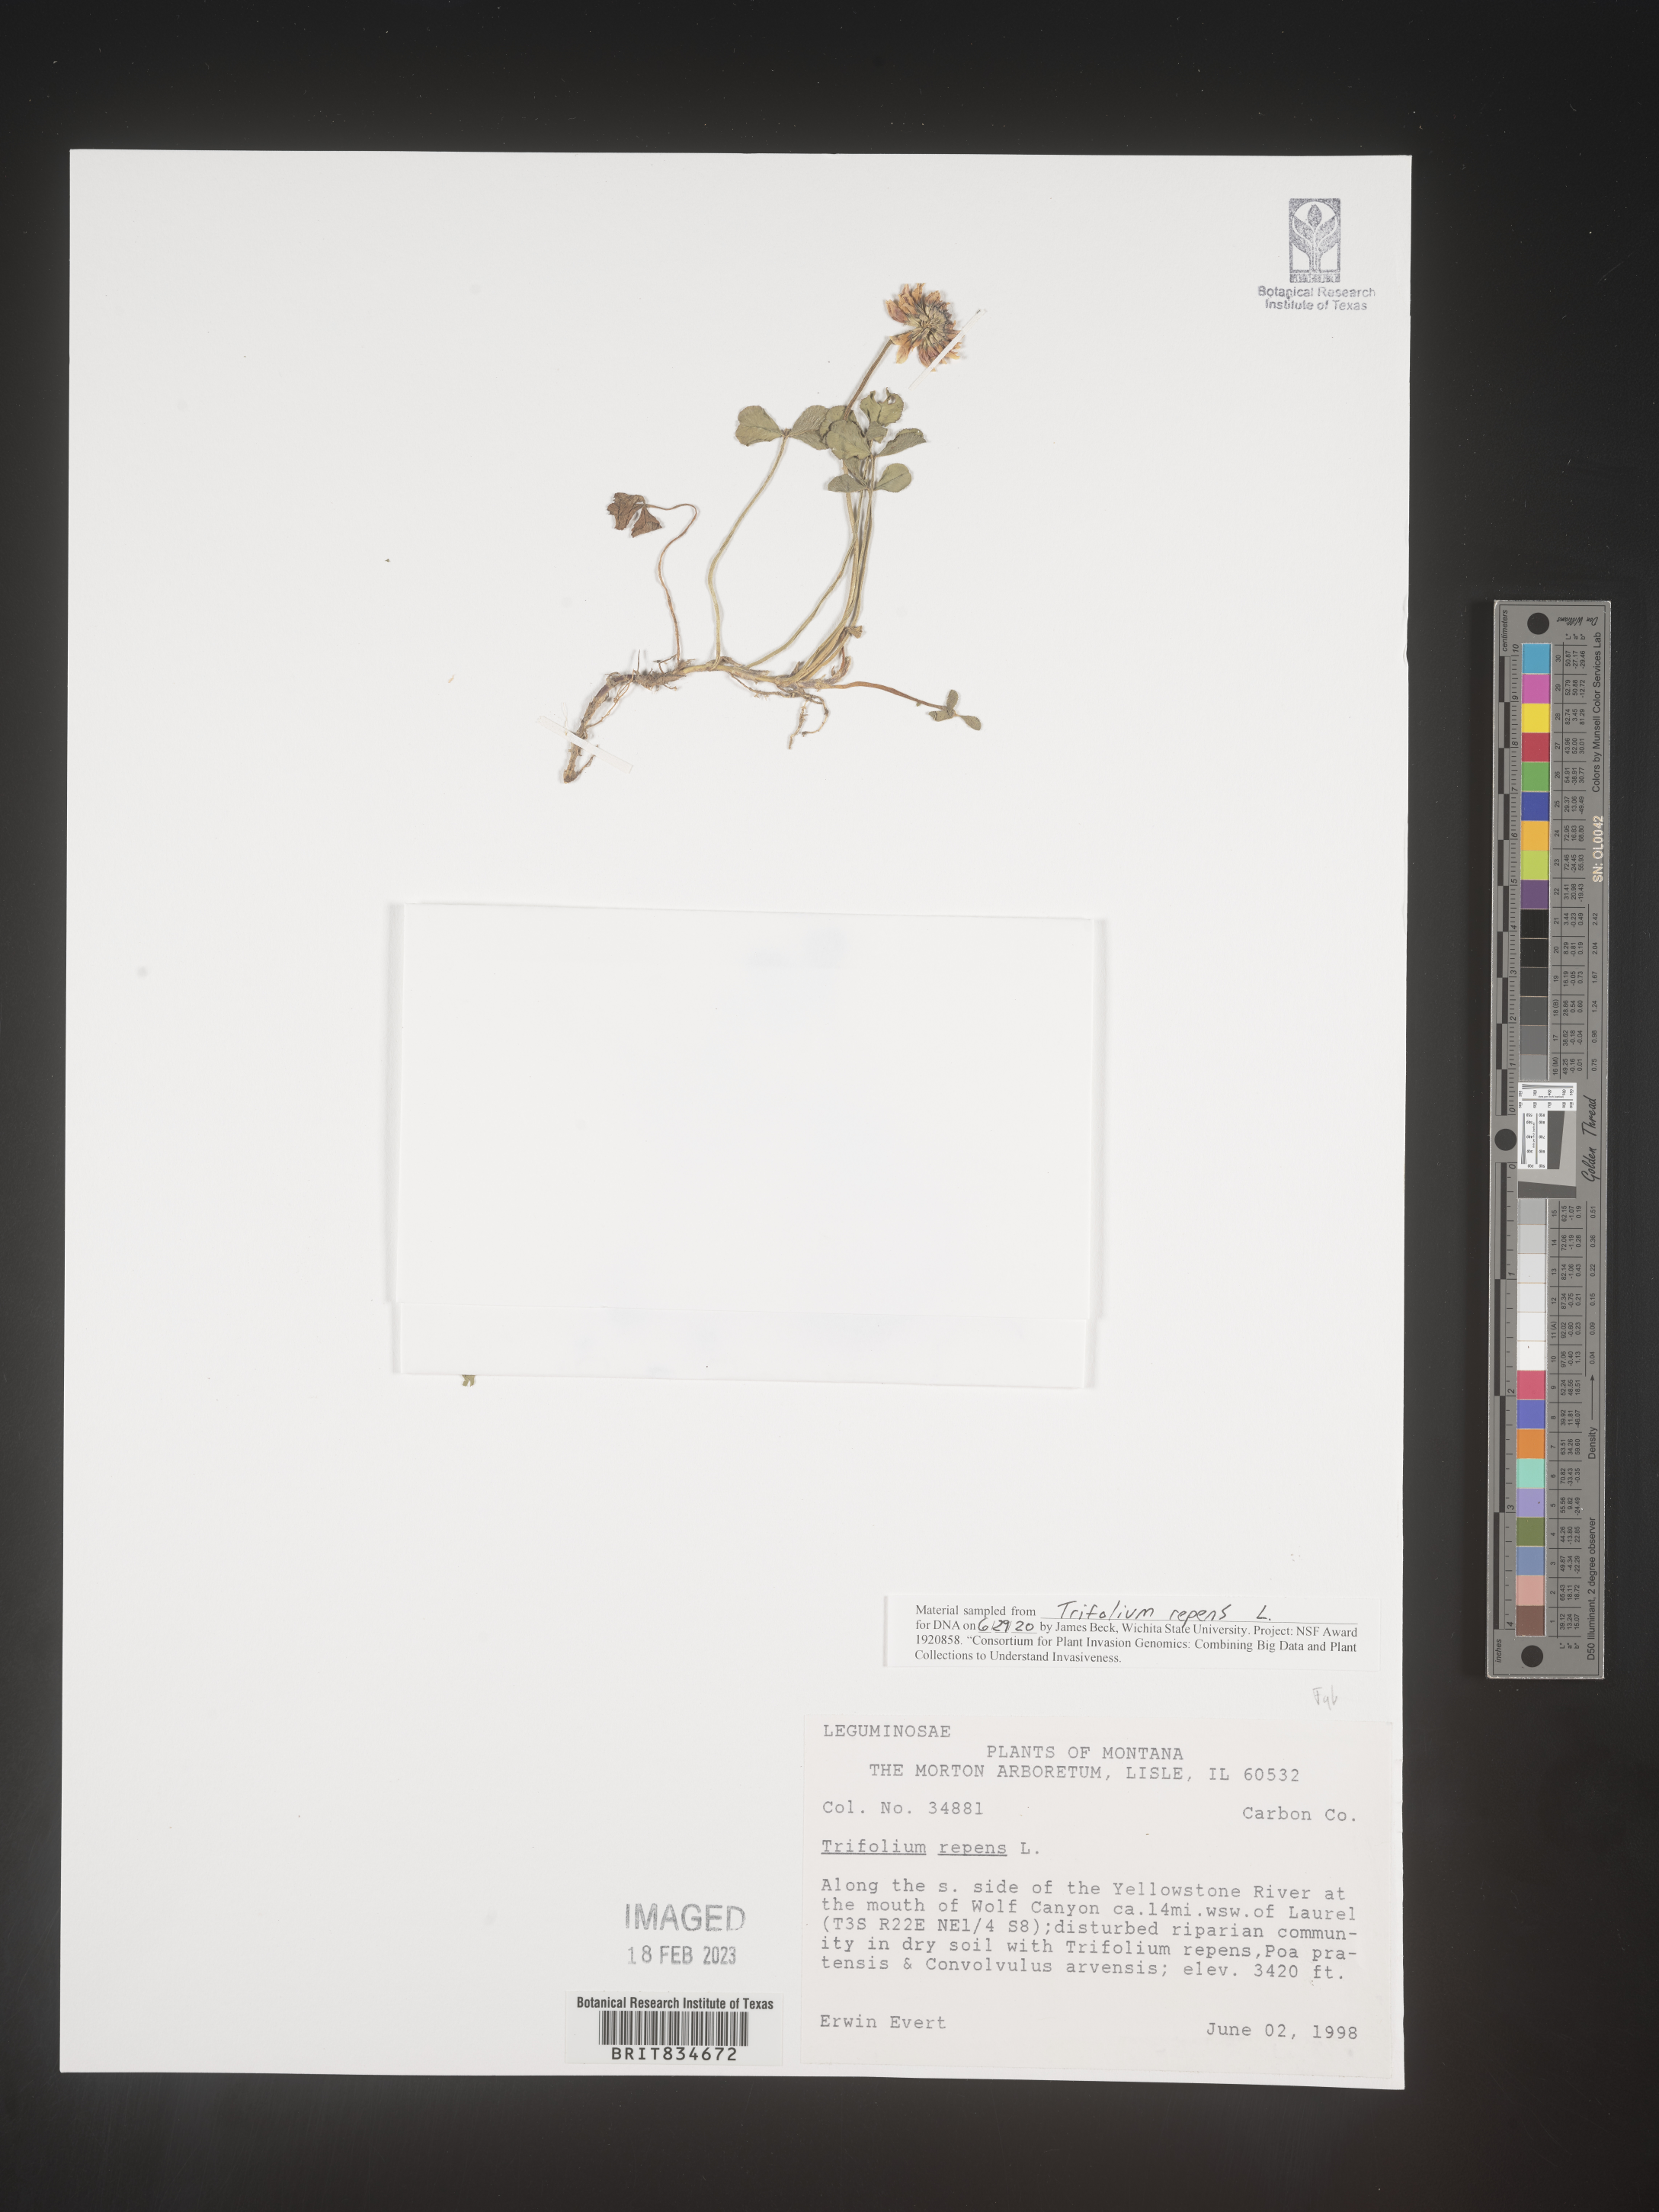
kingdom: Plantae
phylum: Tracheophyta
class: Magnoliopsida
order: Fabales
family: Fabaceae
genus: Trifolium
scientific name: Trifolium repens
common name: White clover
